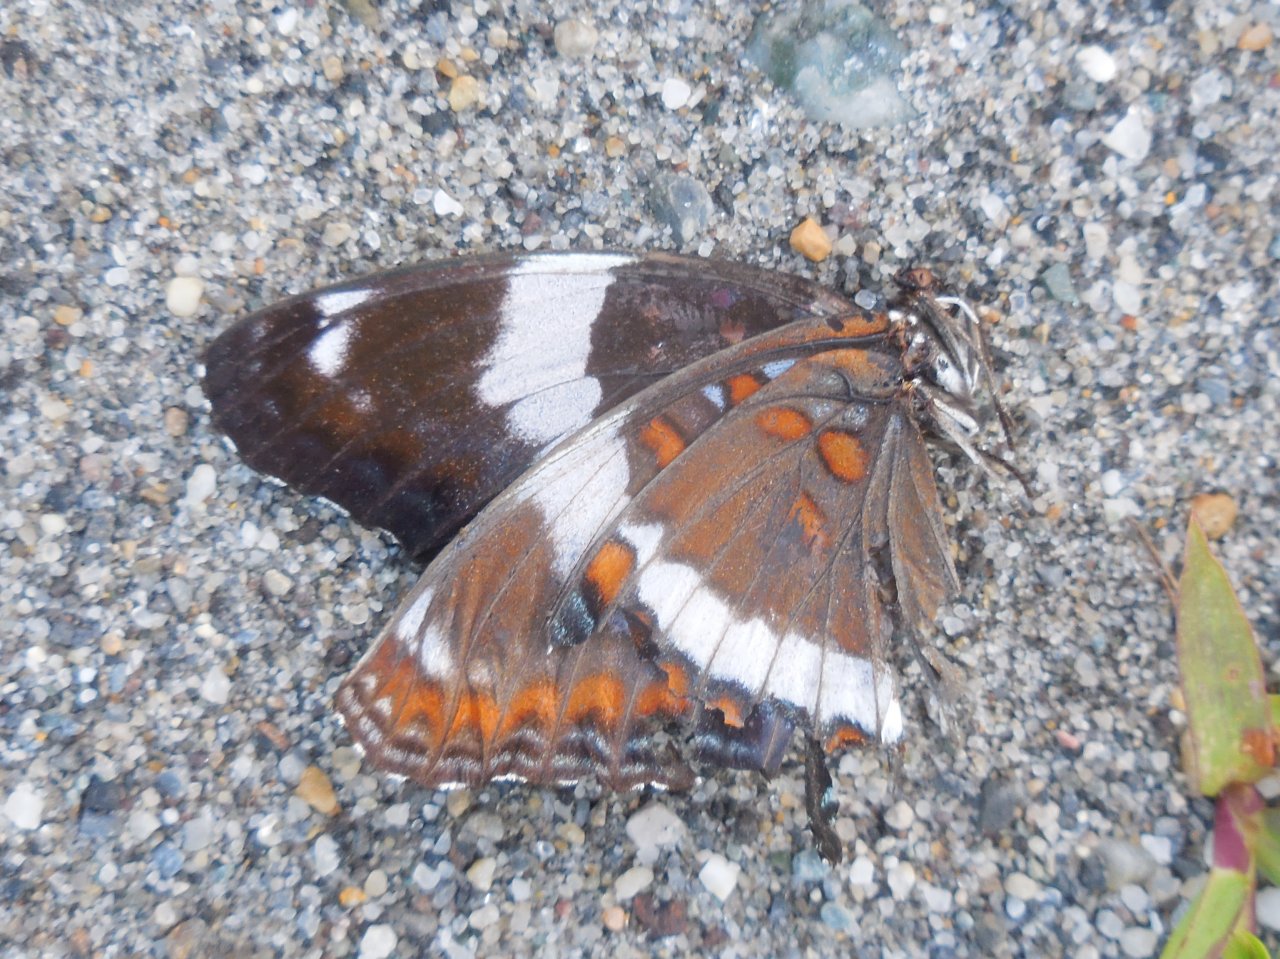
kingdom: Animalia
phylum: Arthropoda
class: Insecta
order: Lepidoptera
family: Nymphalidae
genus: Limenitis
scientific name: Limenitis
